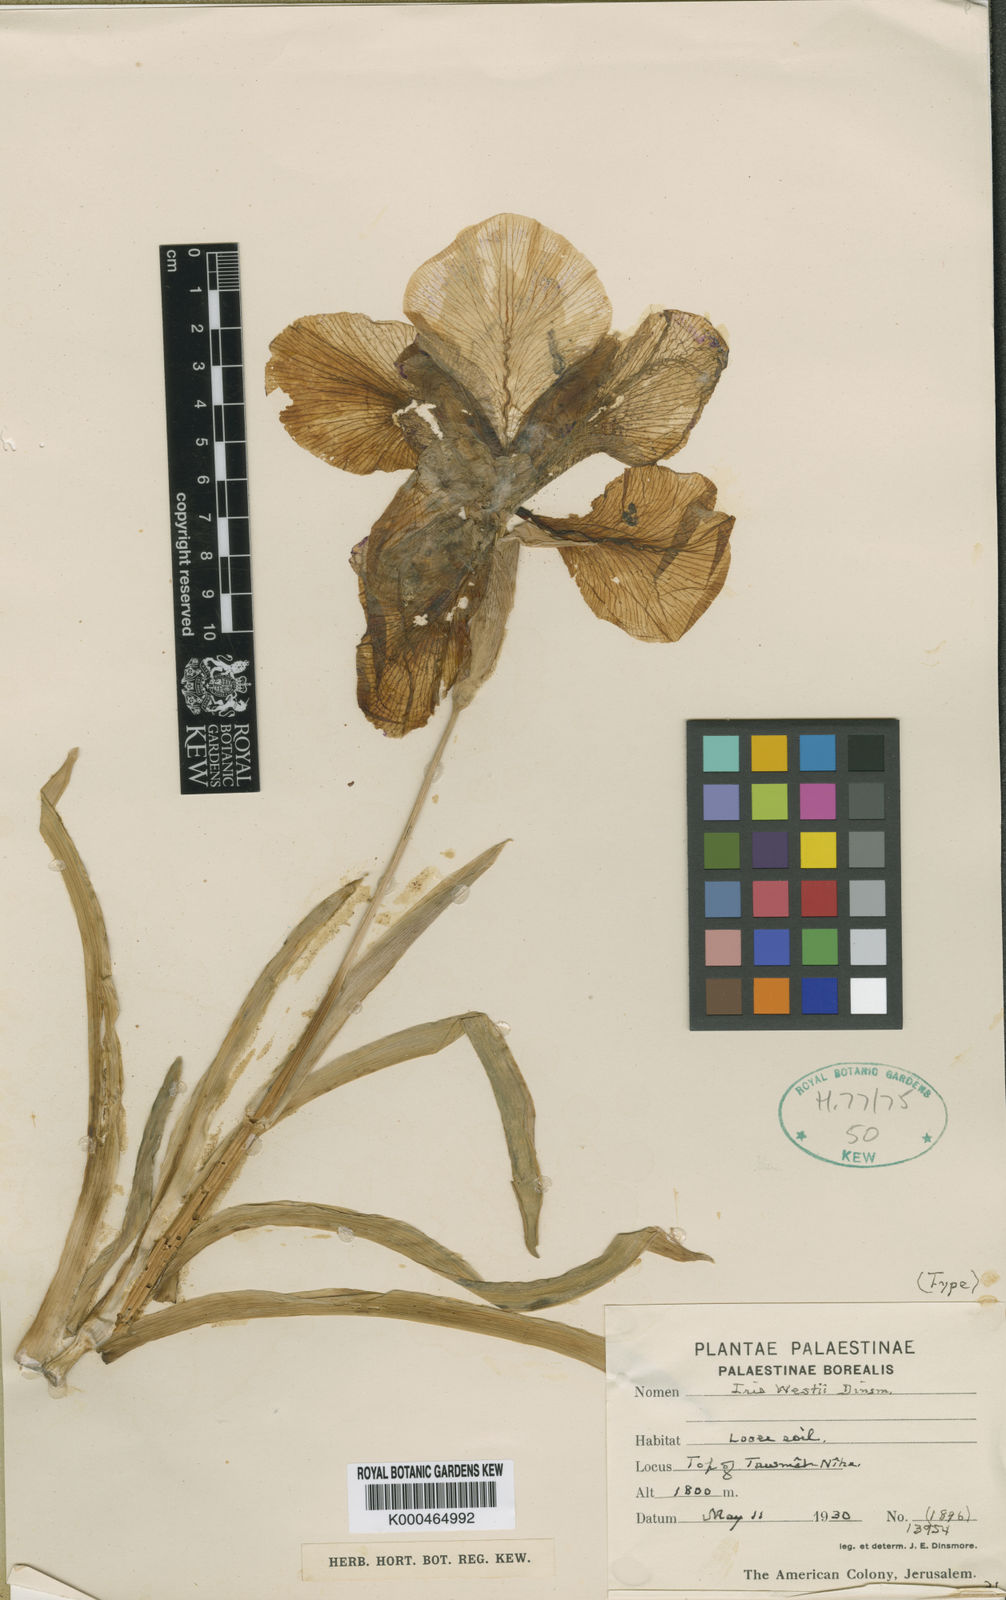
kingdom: Plantae
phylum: Tracheophyta
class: Liliopsida
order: Asparagales
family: Iridaceae
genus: Iris
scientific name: Iris susiana
